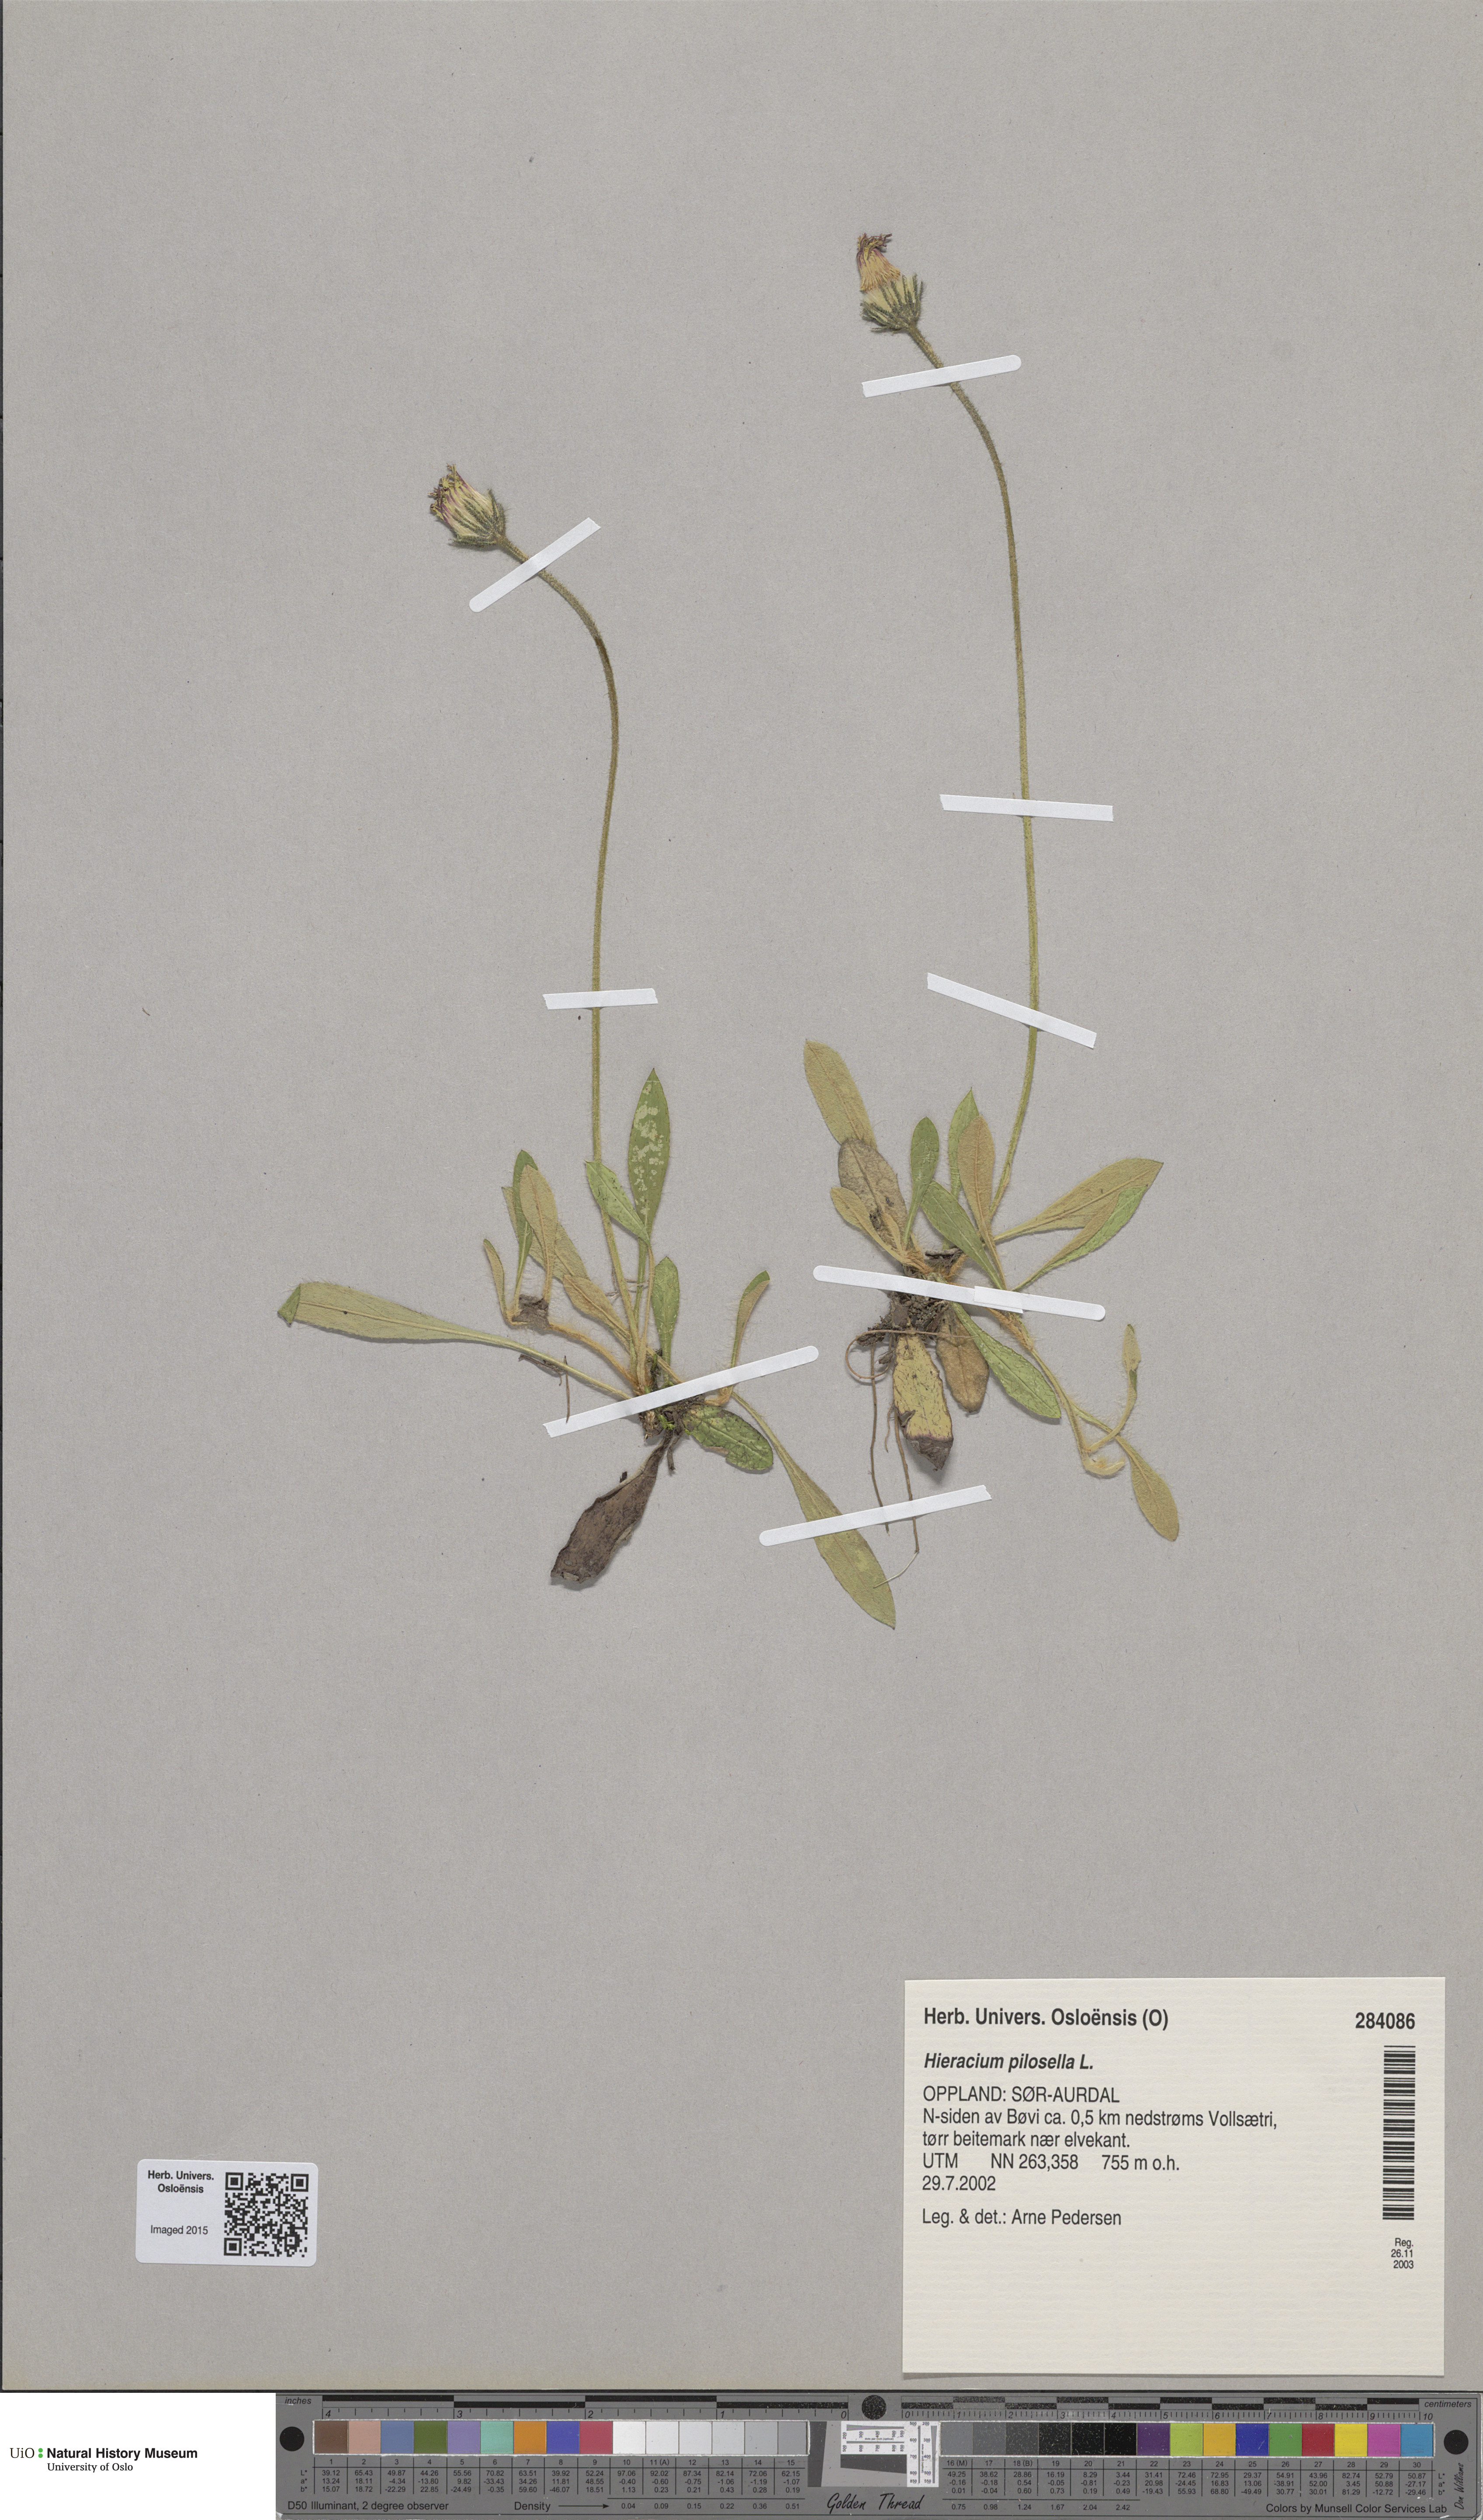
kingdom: Plantae
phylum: Tracheophyta
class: Magnoliopsida
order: Asterales
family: Asteraceae
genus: Pilosella
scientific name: Pilosella officinarum
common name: Mouse-ear hawkweed
